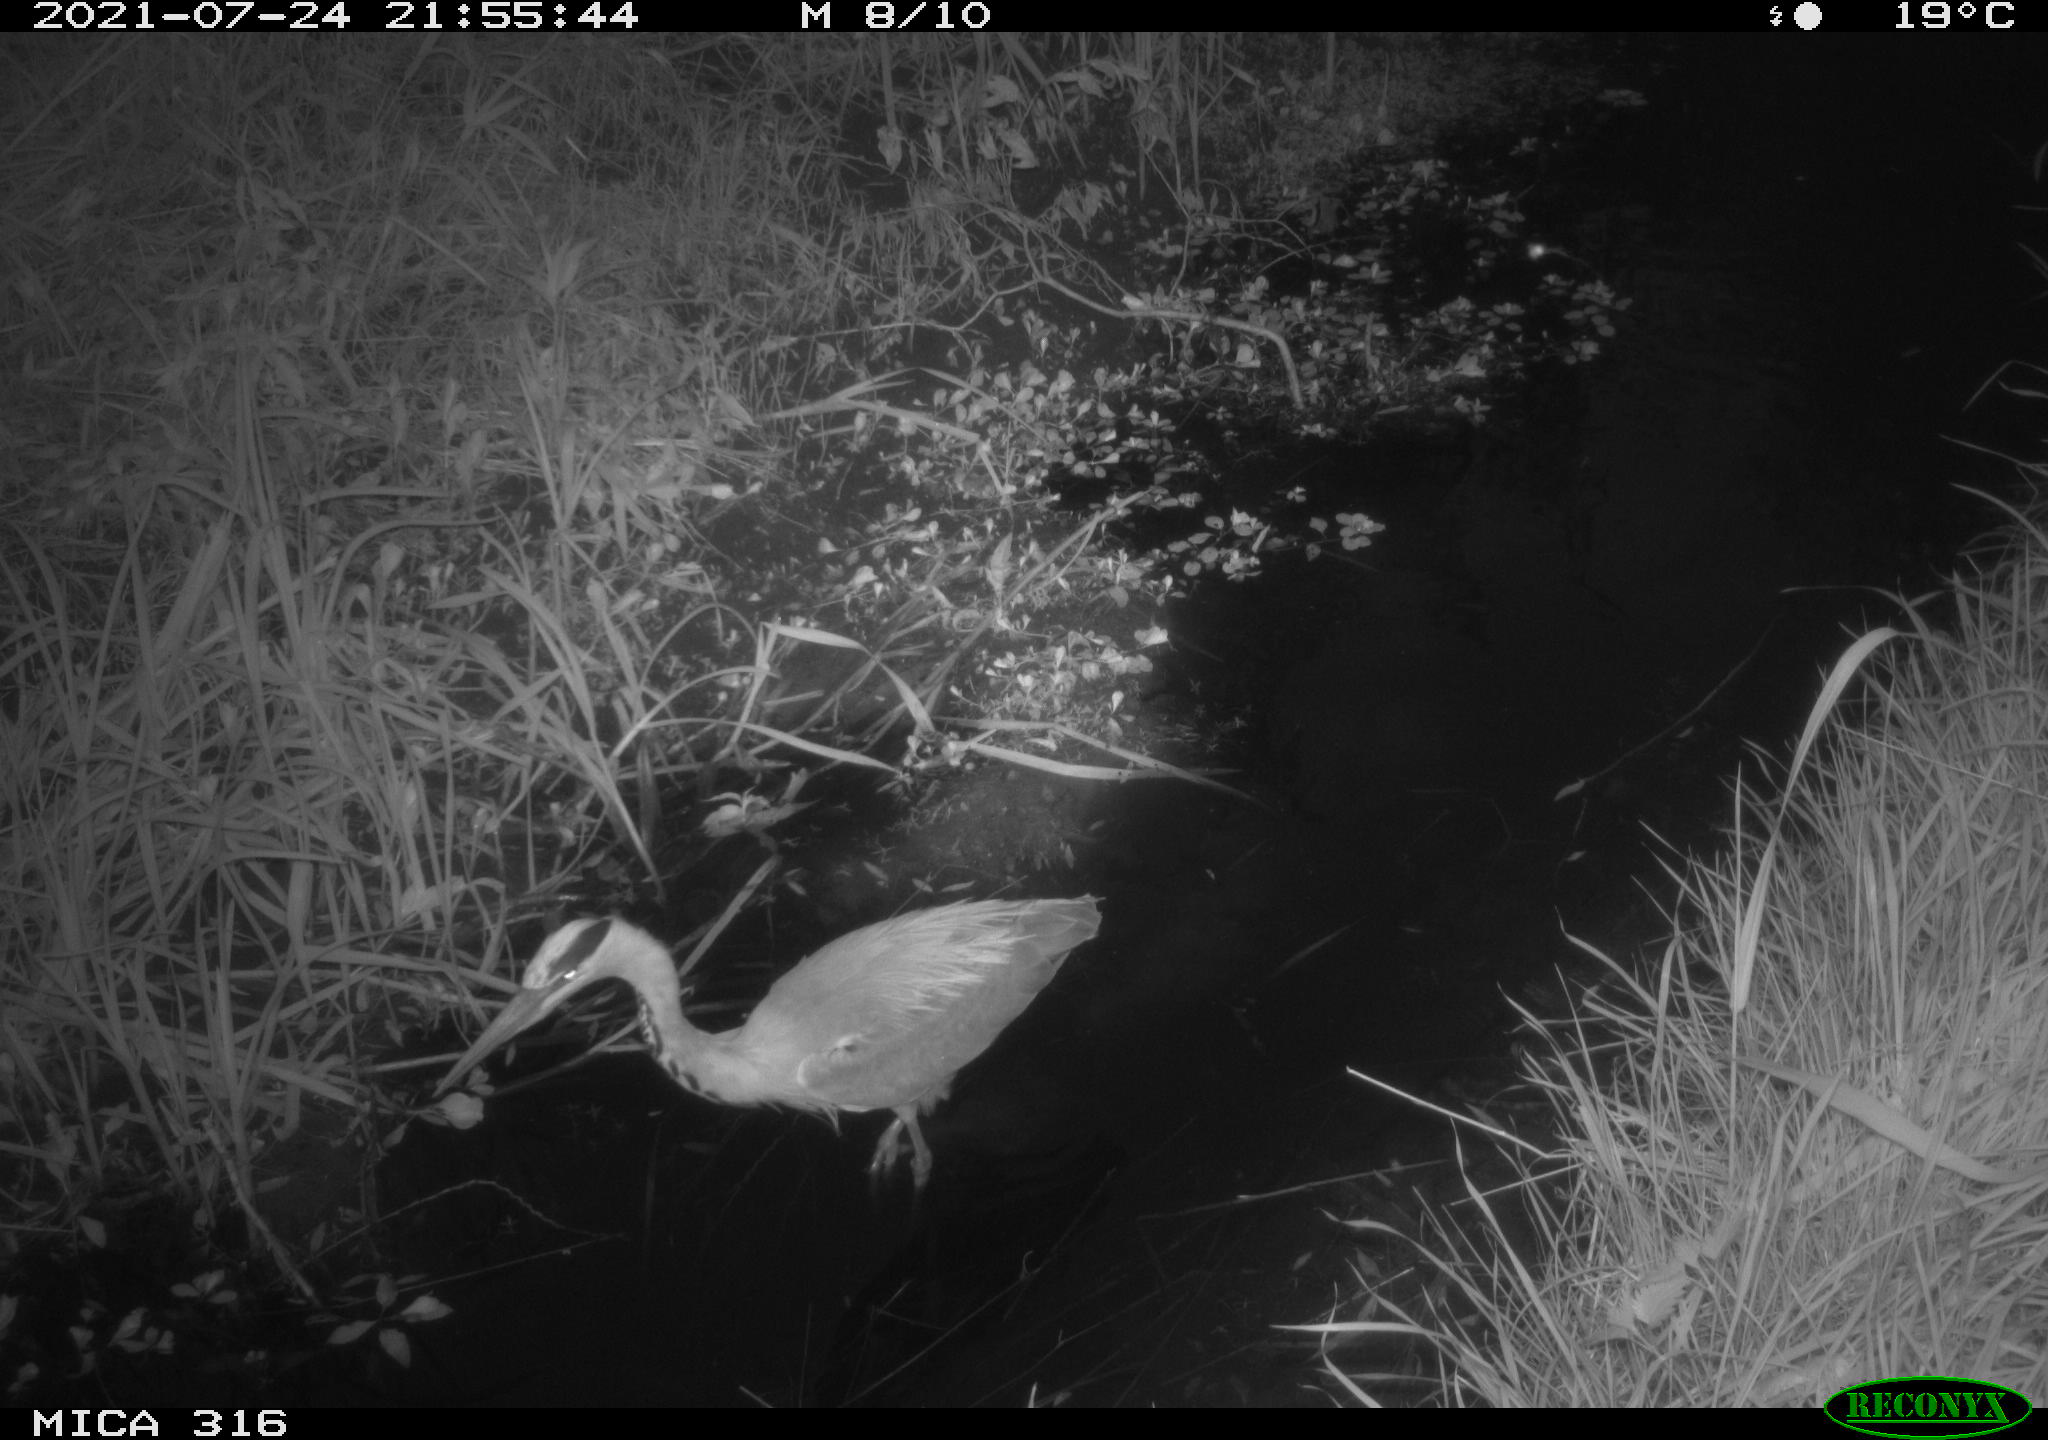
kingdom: Animalia
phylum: Chordata
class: Aves
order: Pelecaniformes
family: Ardeidae
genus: Ardea
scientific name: Ardea
